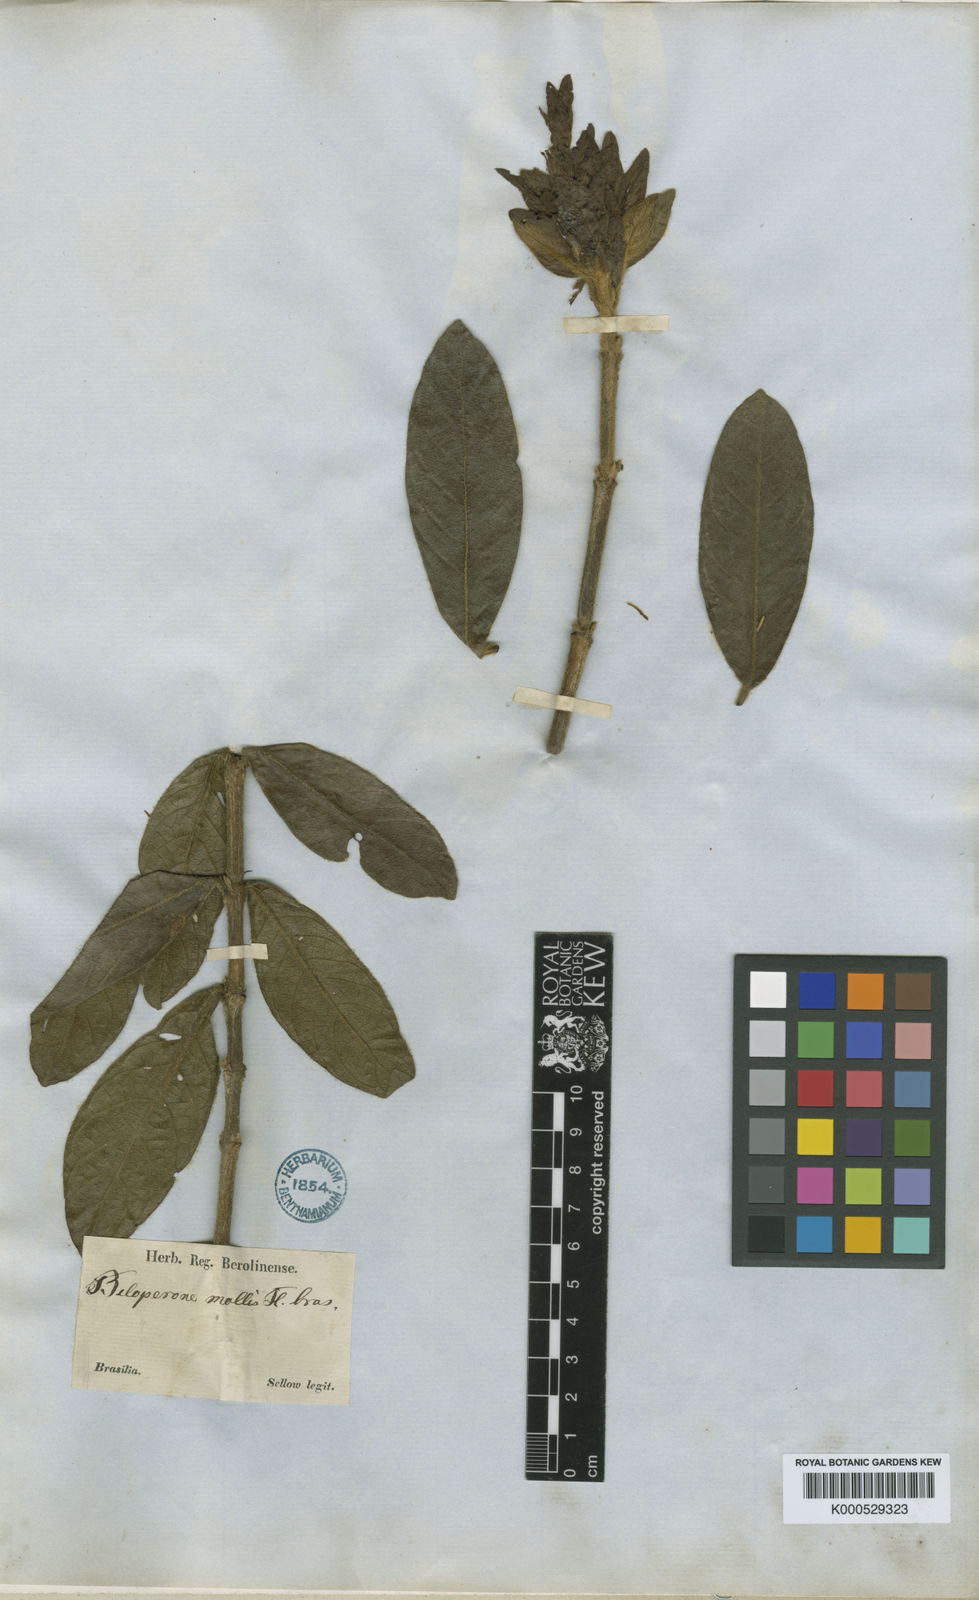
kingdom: Plantae
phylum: Tracheophyta
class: Magnoliopsida
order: Lamiales
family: Acanthaceae
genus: Justicia
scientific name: Justicia riparia
